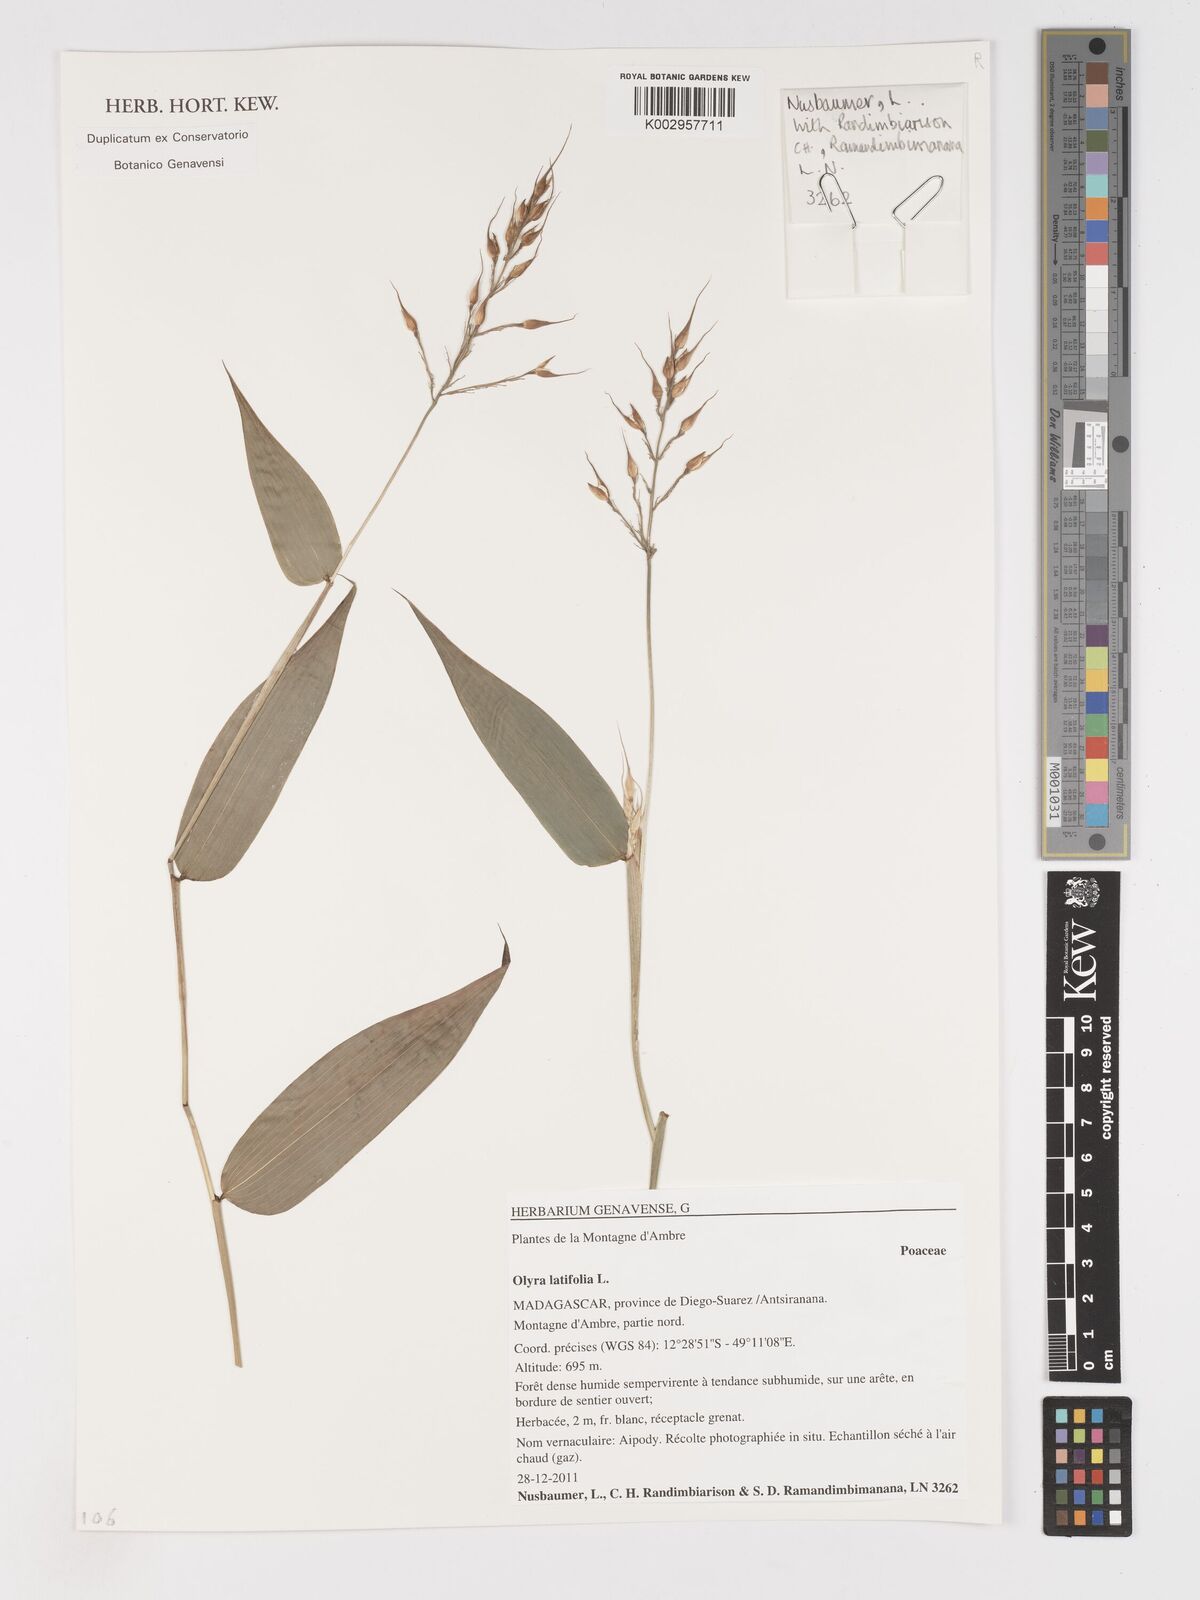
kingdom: Plantae
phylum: Tracheophyta
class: Liliopsida
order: Poales
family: Poaceae
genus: Olyra
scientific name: Olyra latifolia
